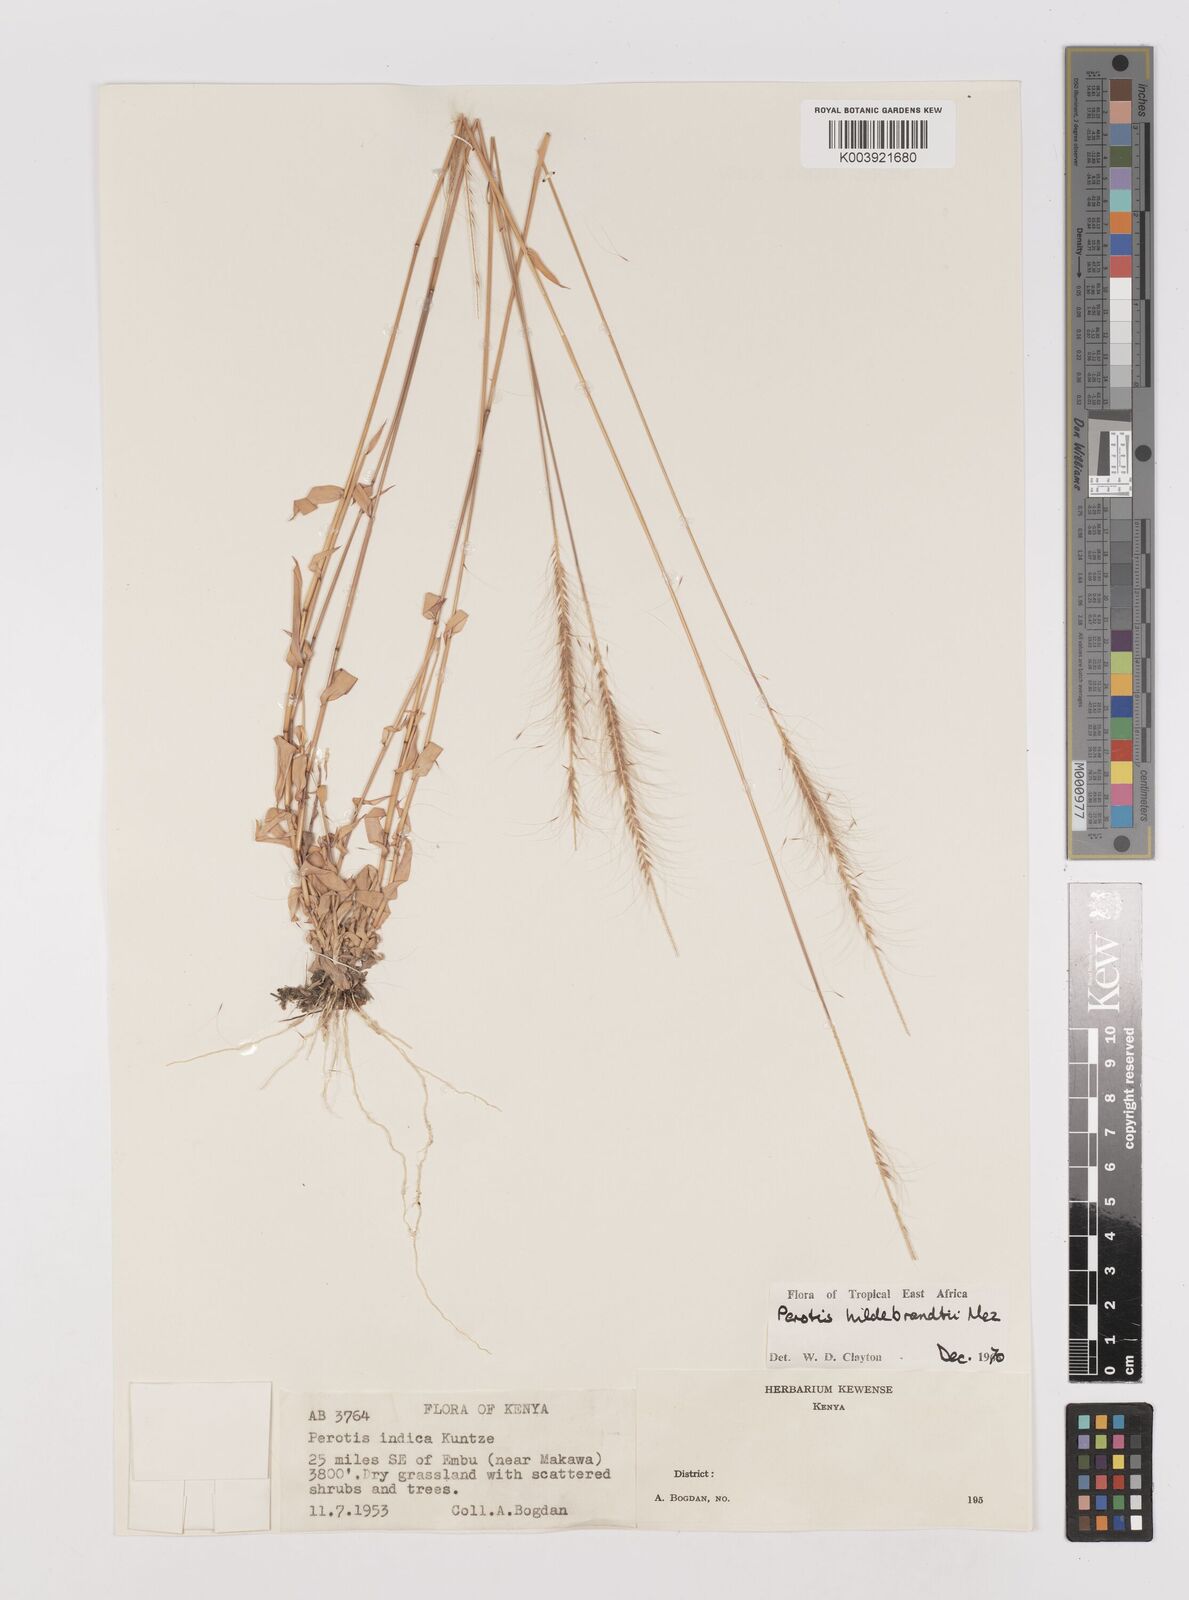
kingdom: Plantae
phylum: Tracheophyta
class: Liliopsida
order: Poales
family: Poaceae
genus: Perotis
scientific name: Perotis hildebrandtii
